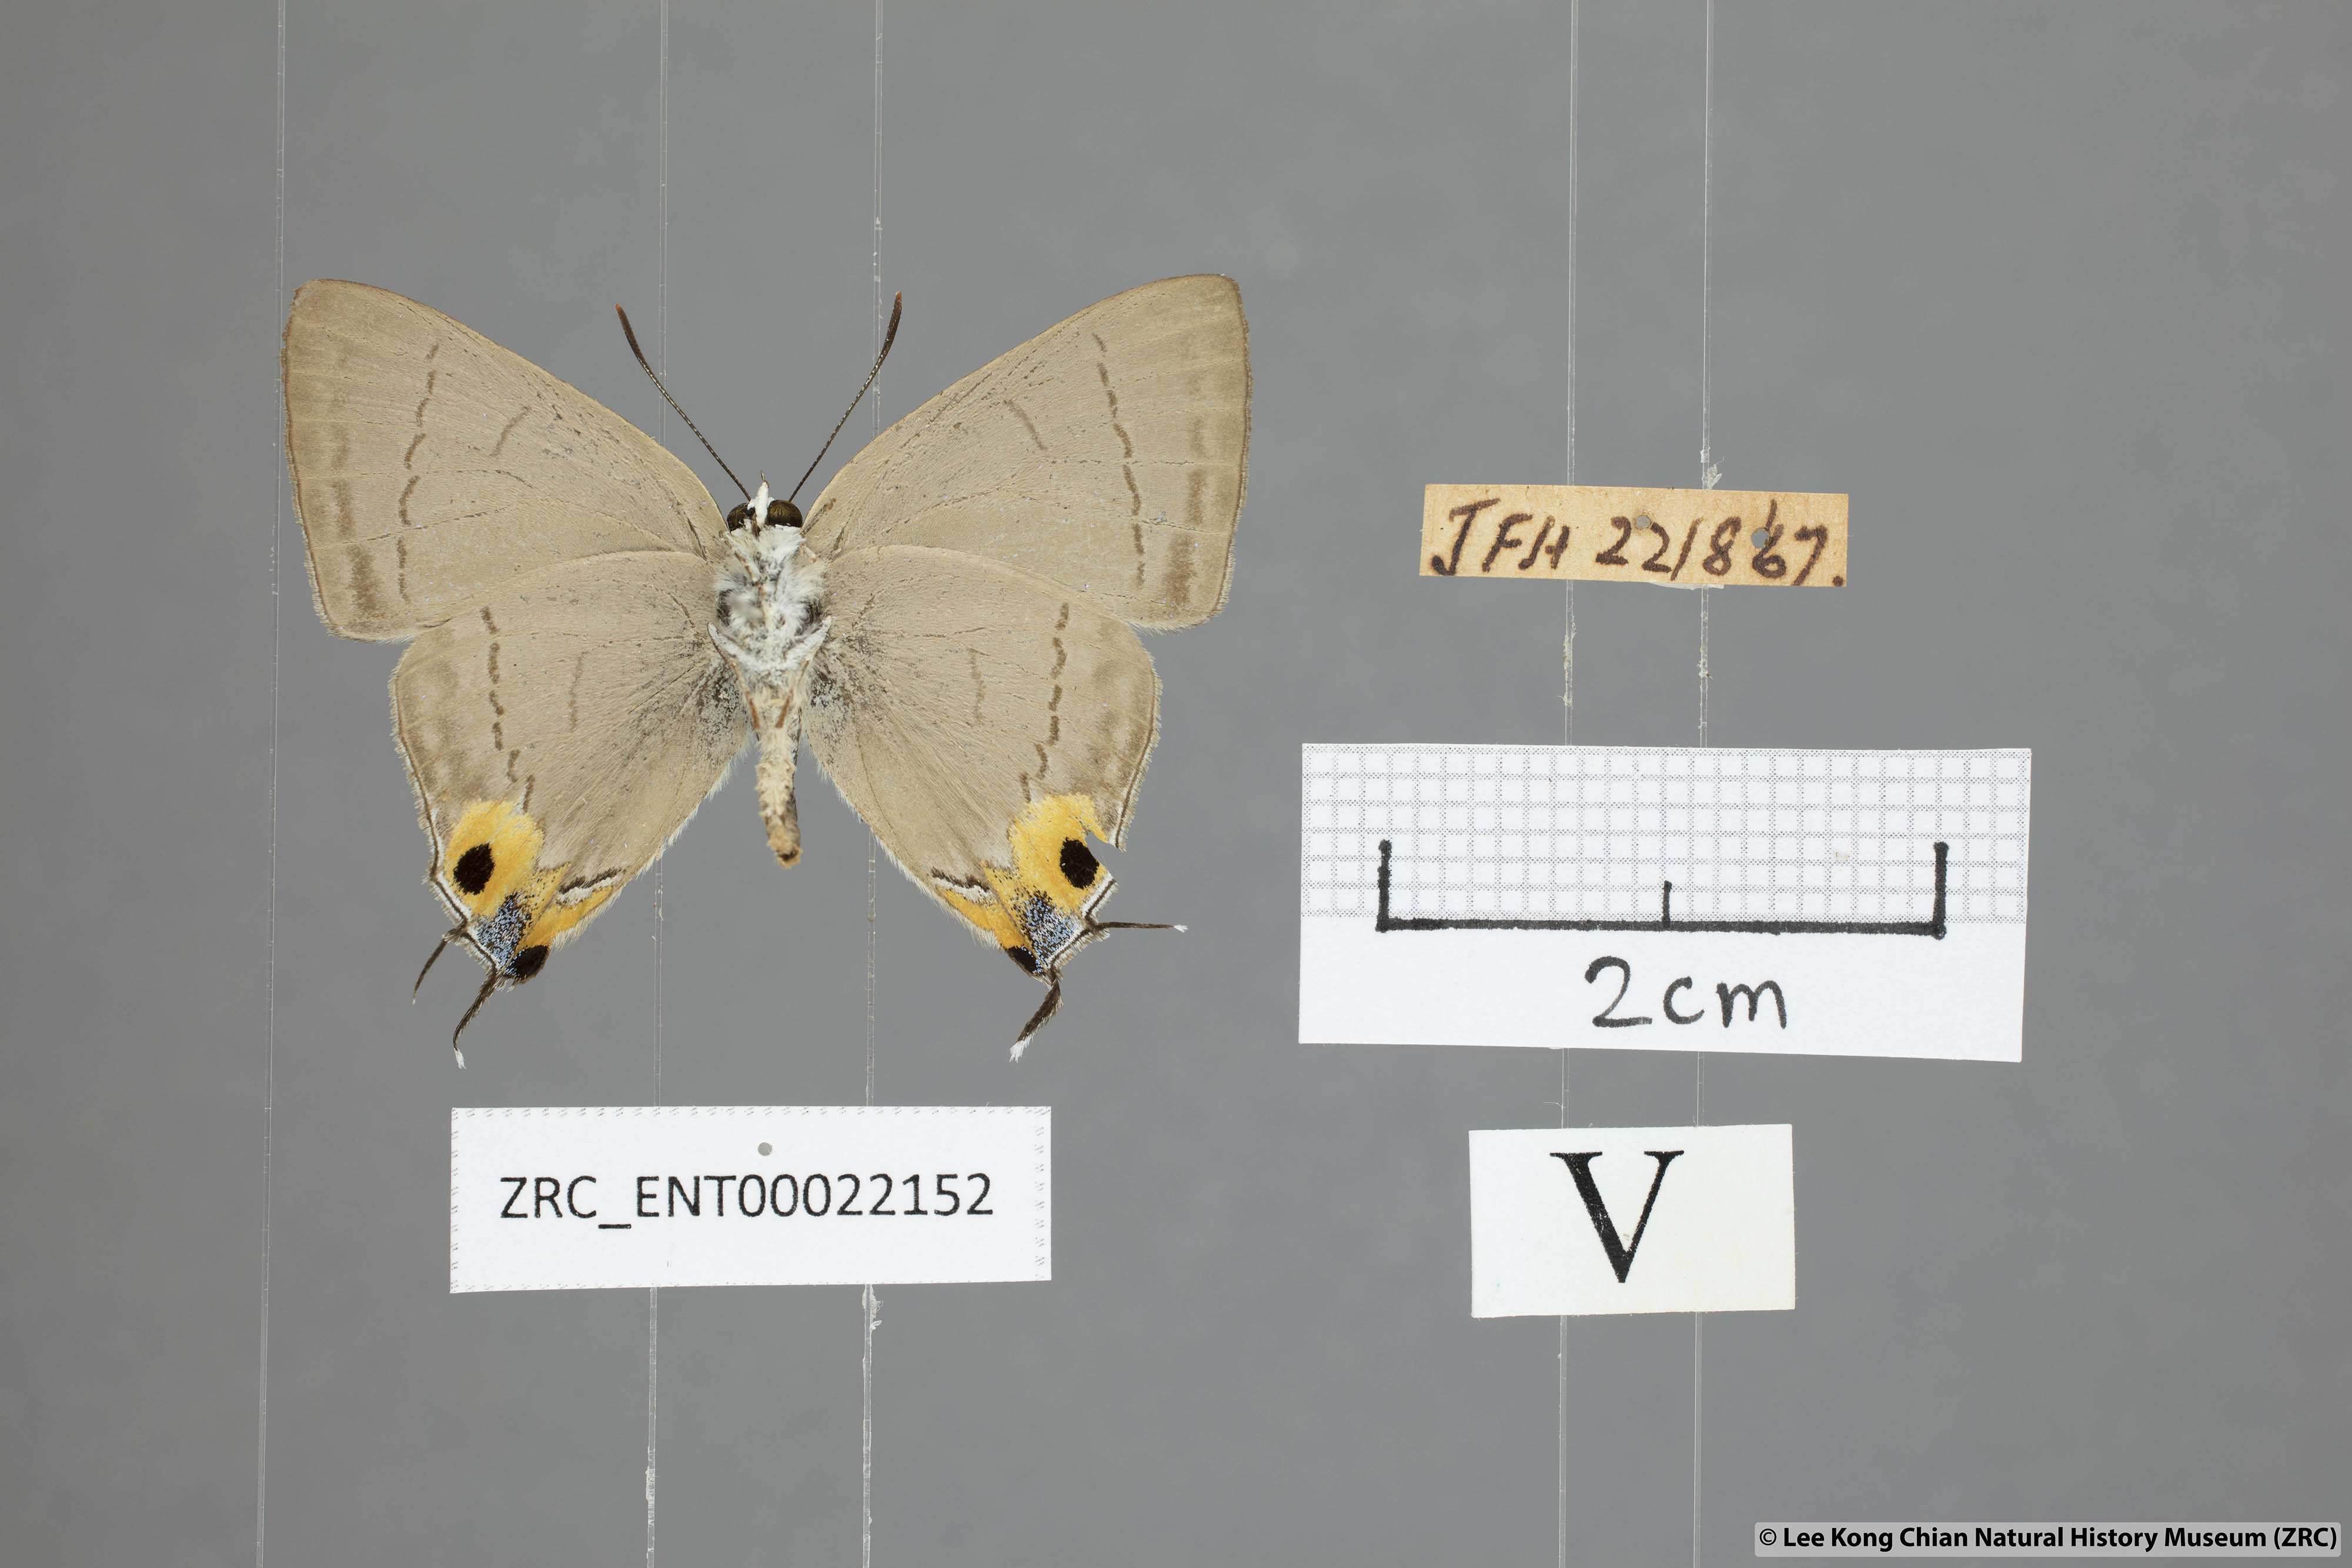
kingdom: Animalia
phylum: Arthropoda
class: Insecta
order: Lepidoptera
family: Lycaenidae
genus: Tajuria
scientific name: Tajuria albiplaga
